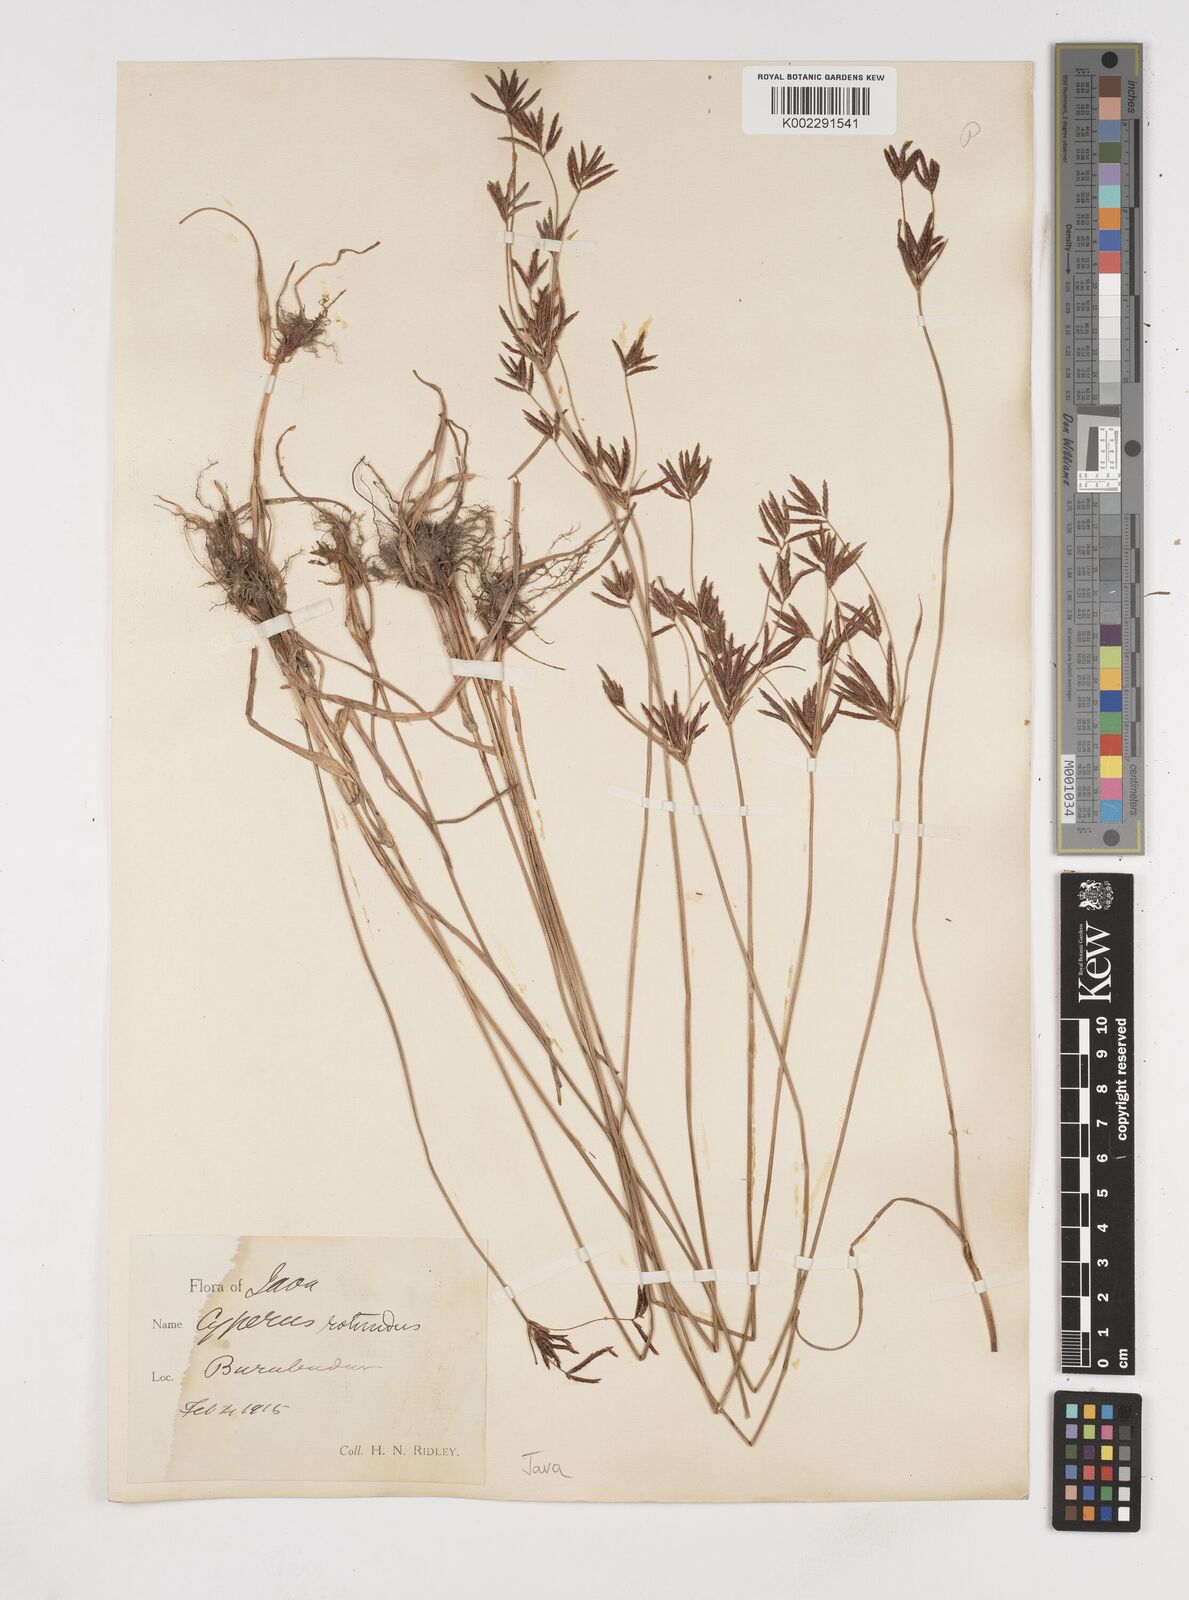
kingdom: Plantae
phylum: Tracheophyta
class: Liliopsida
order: Poales
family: Cyperaceae
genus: Cyperus
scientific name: Cyperus rotundus
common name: Nutgrass
